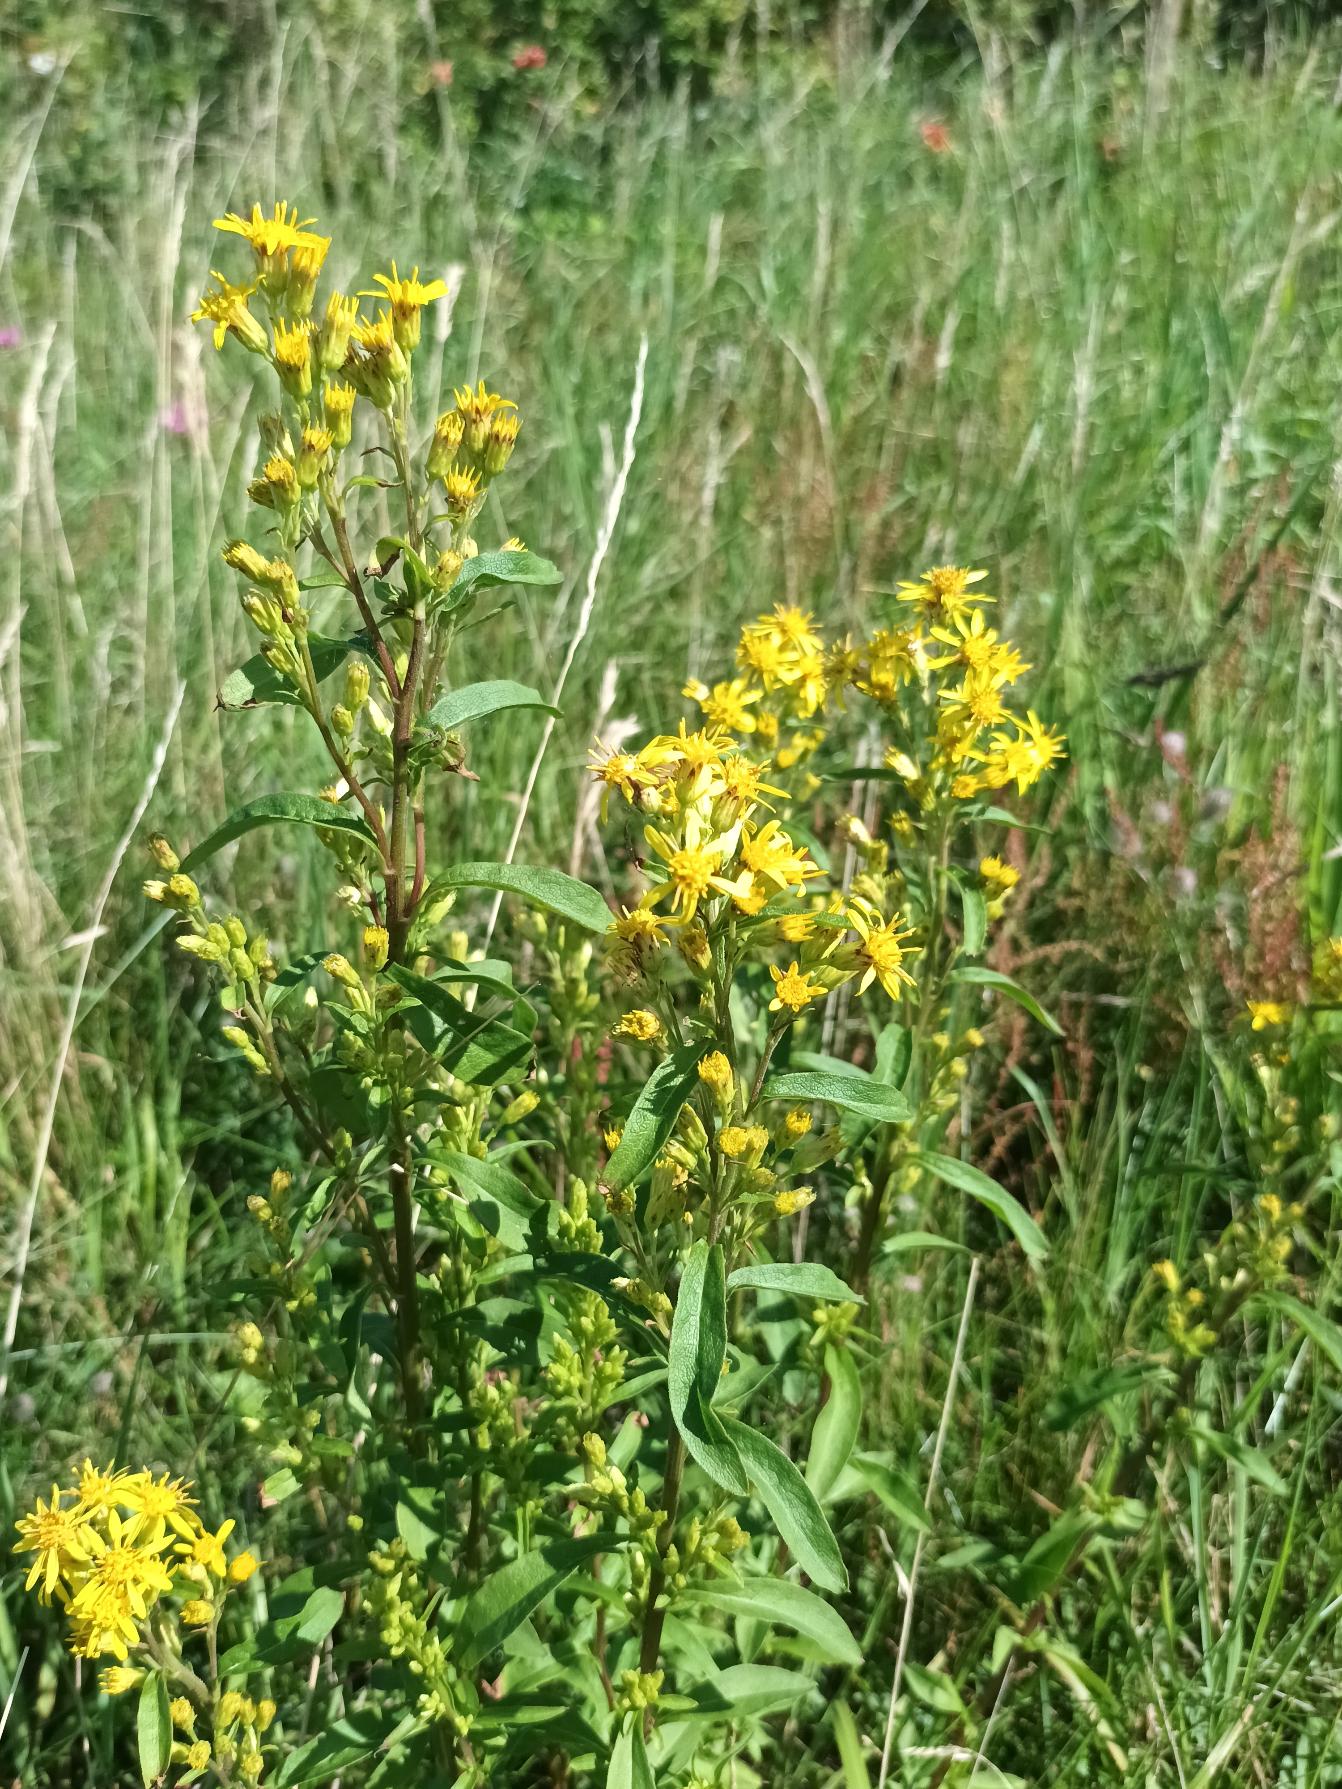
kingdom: Plantae
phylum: Tracheophyta
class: Magnoliopsida
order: Asterales
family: Asteraceae
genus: Solidago
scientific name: Solidago virgaurea
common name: Almindelig gyldenris
